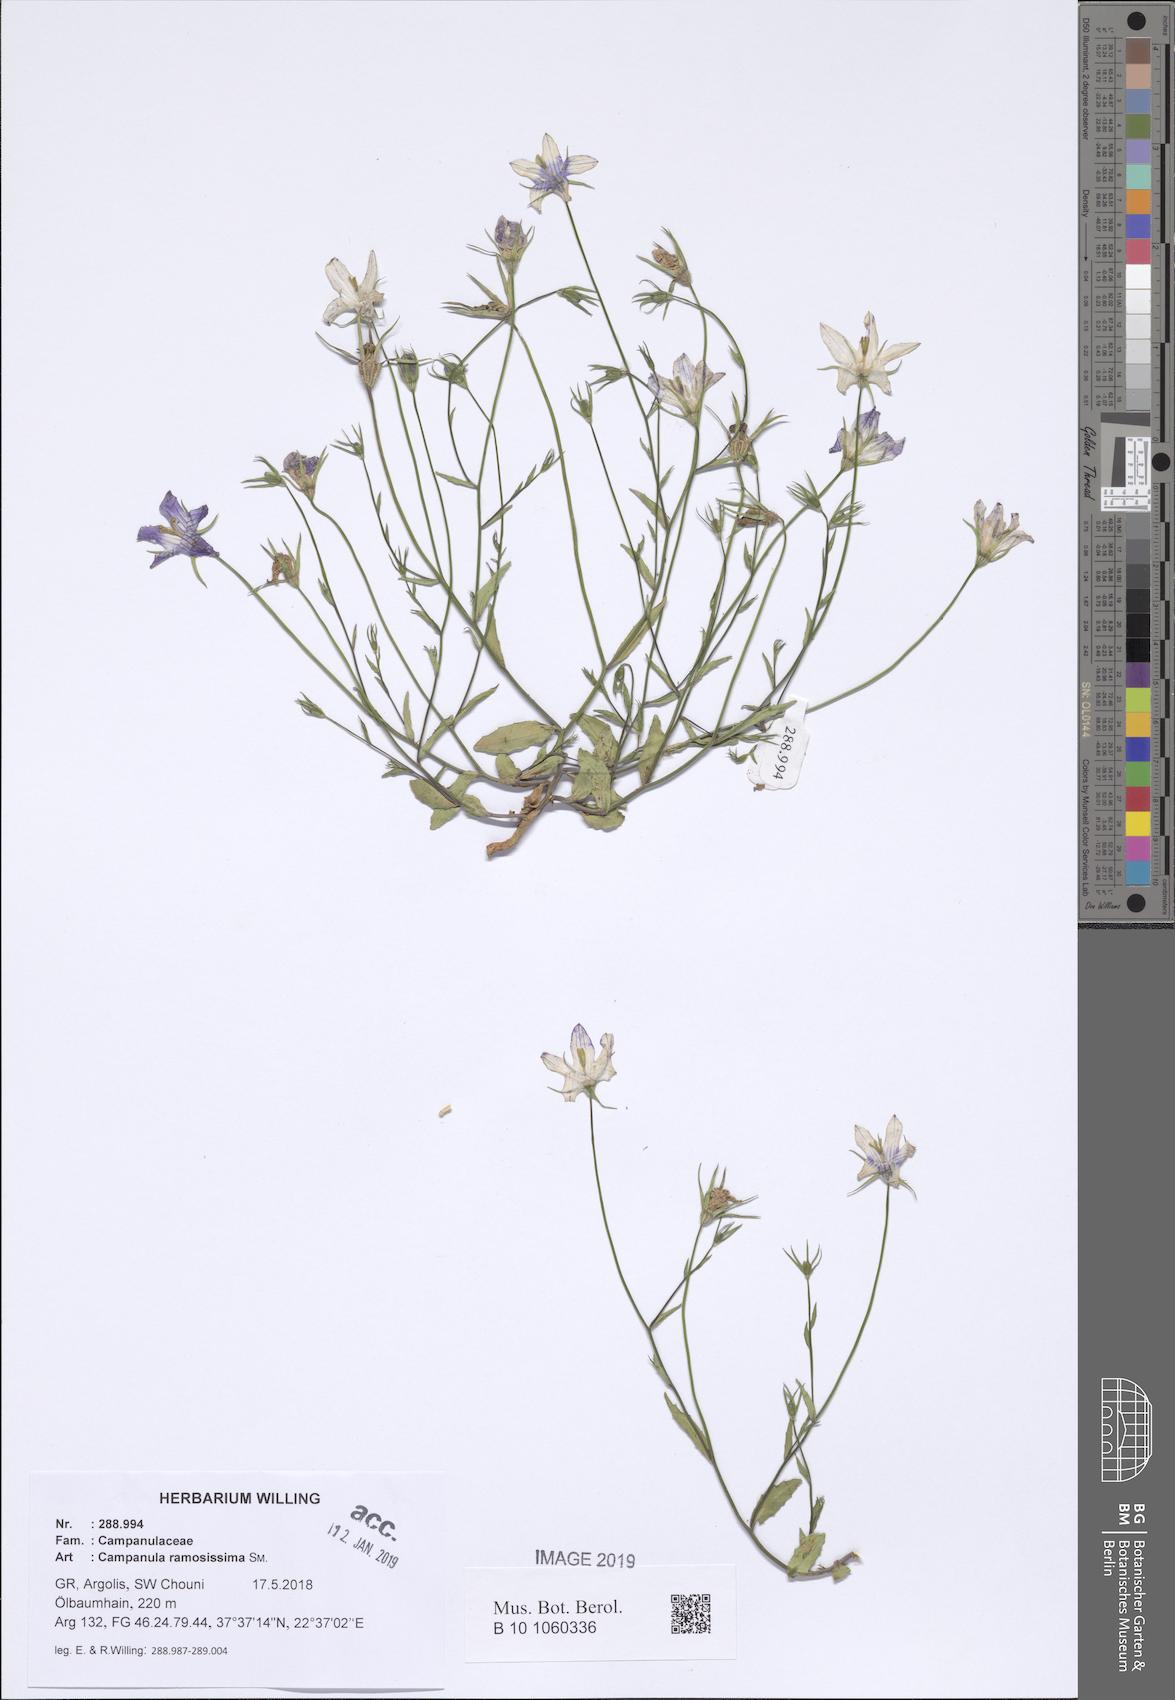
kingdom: Plantae
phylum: Tracheophyta
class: Magnoliopsida
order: Asterales
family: Campanulaceae
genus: Campanula
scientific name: Campanula ramosissima
